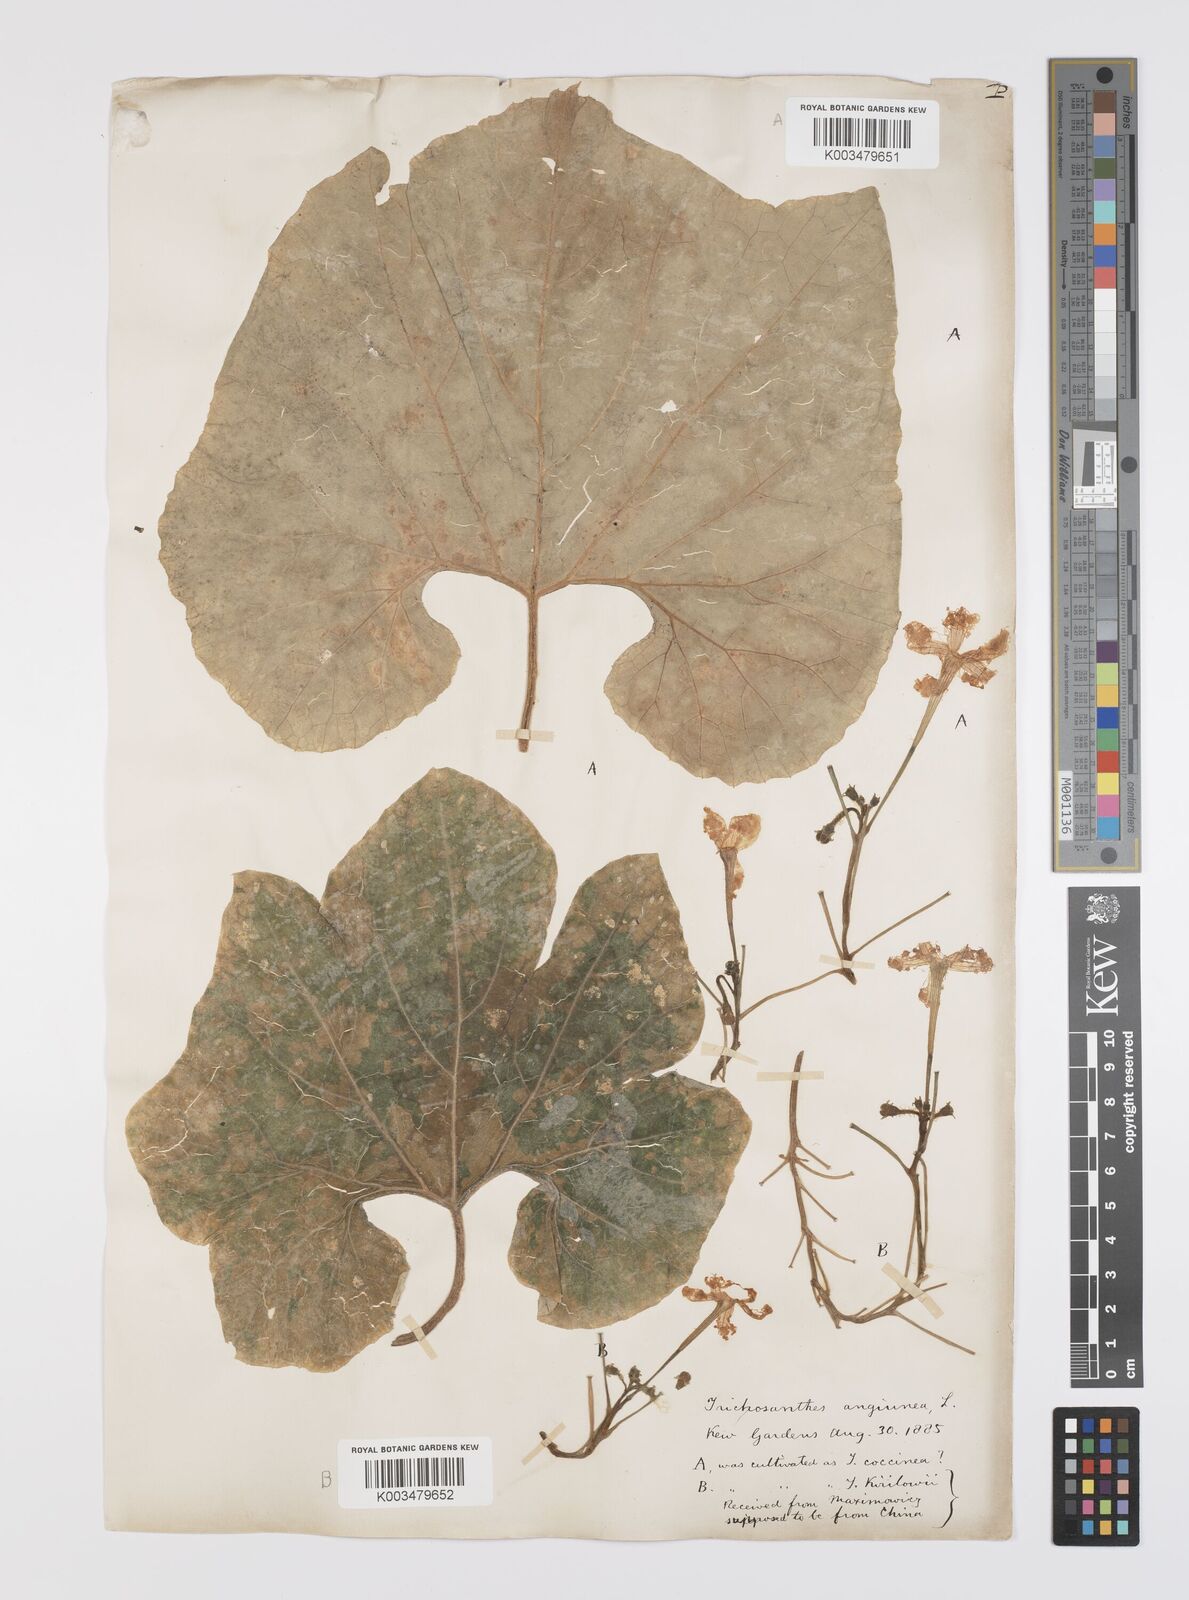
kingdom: Plantae
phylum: Tracheophyta
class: Magnoliopsida
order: Cucurbitales
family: Cucurbitaceae
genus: Trichosanthes
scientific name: Trichosanthes cucumerina
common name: Snakegourd
